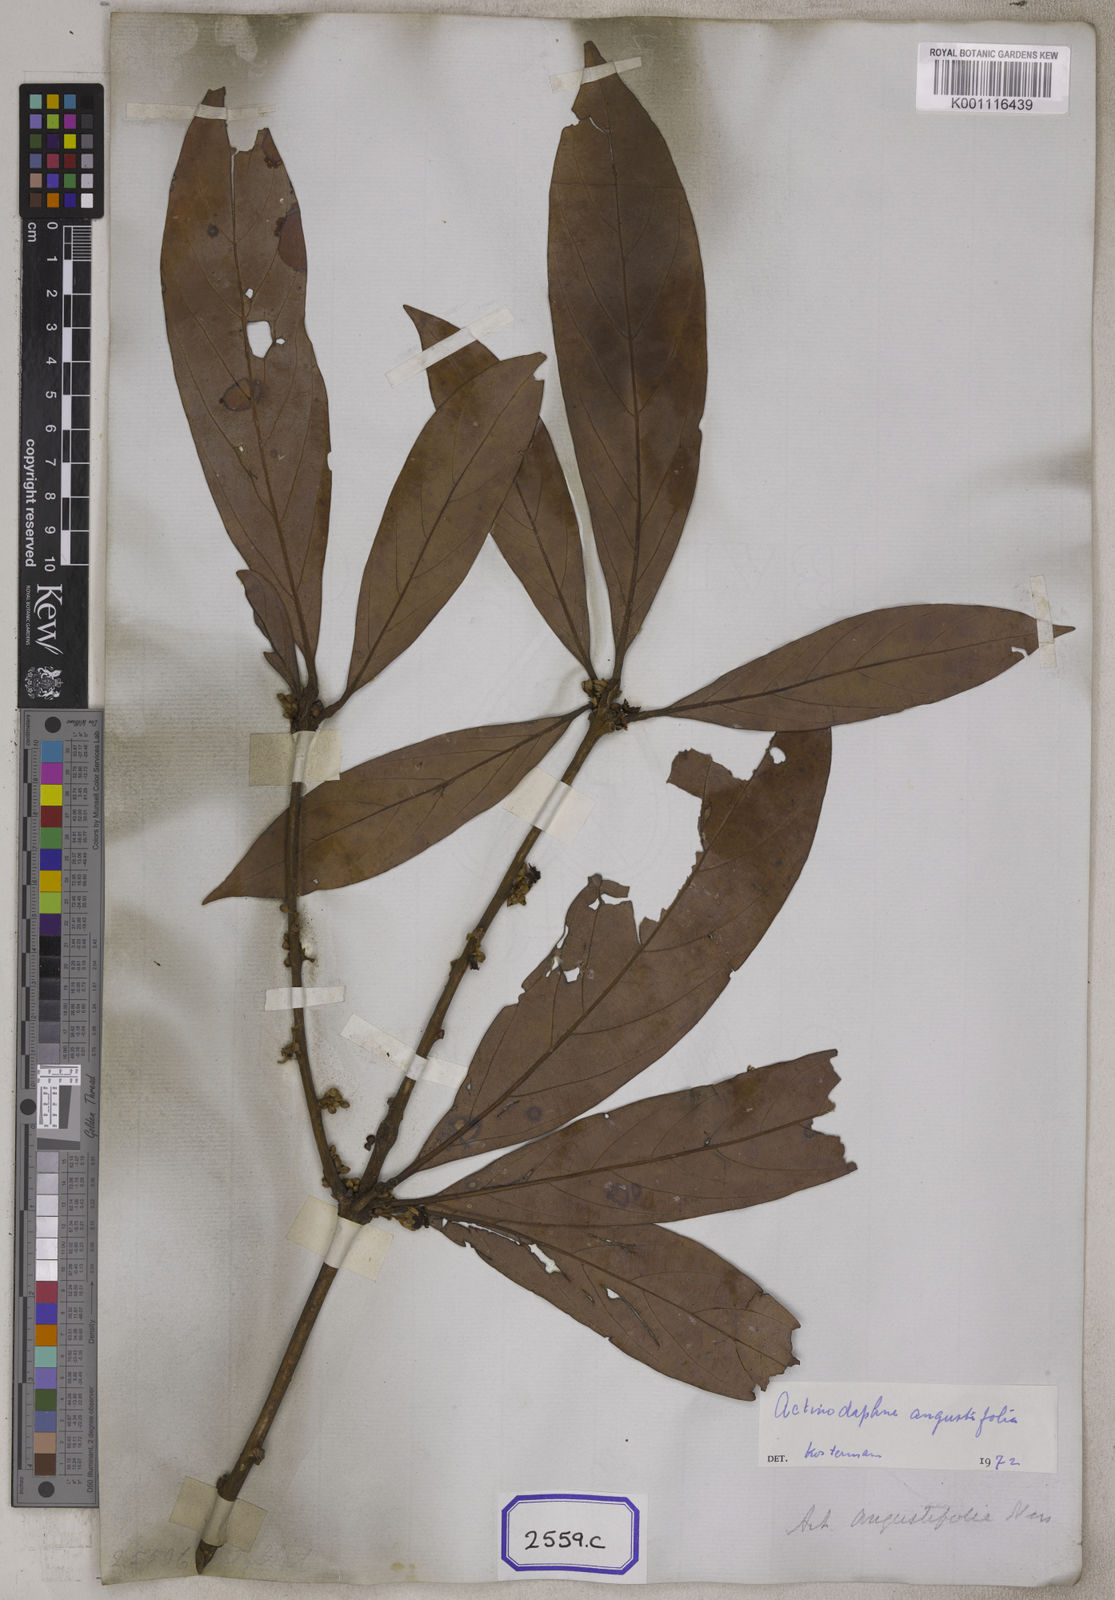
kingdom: Plantae
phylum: Tracheophyta
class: Magnoliopsida
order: Laurales
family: Lauraceae
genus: Actinodaphne
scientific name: Actinodaphne angustifolia
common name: Pisatree
